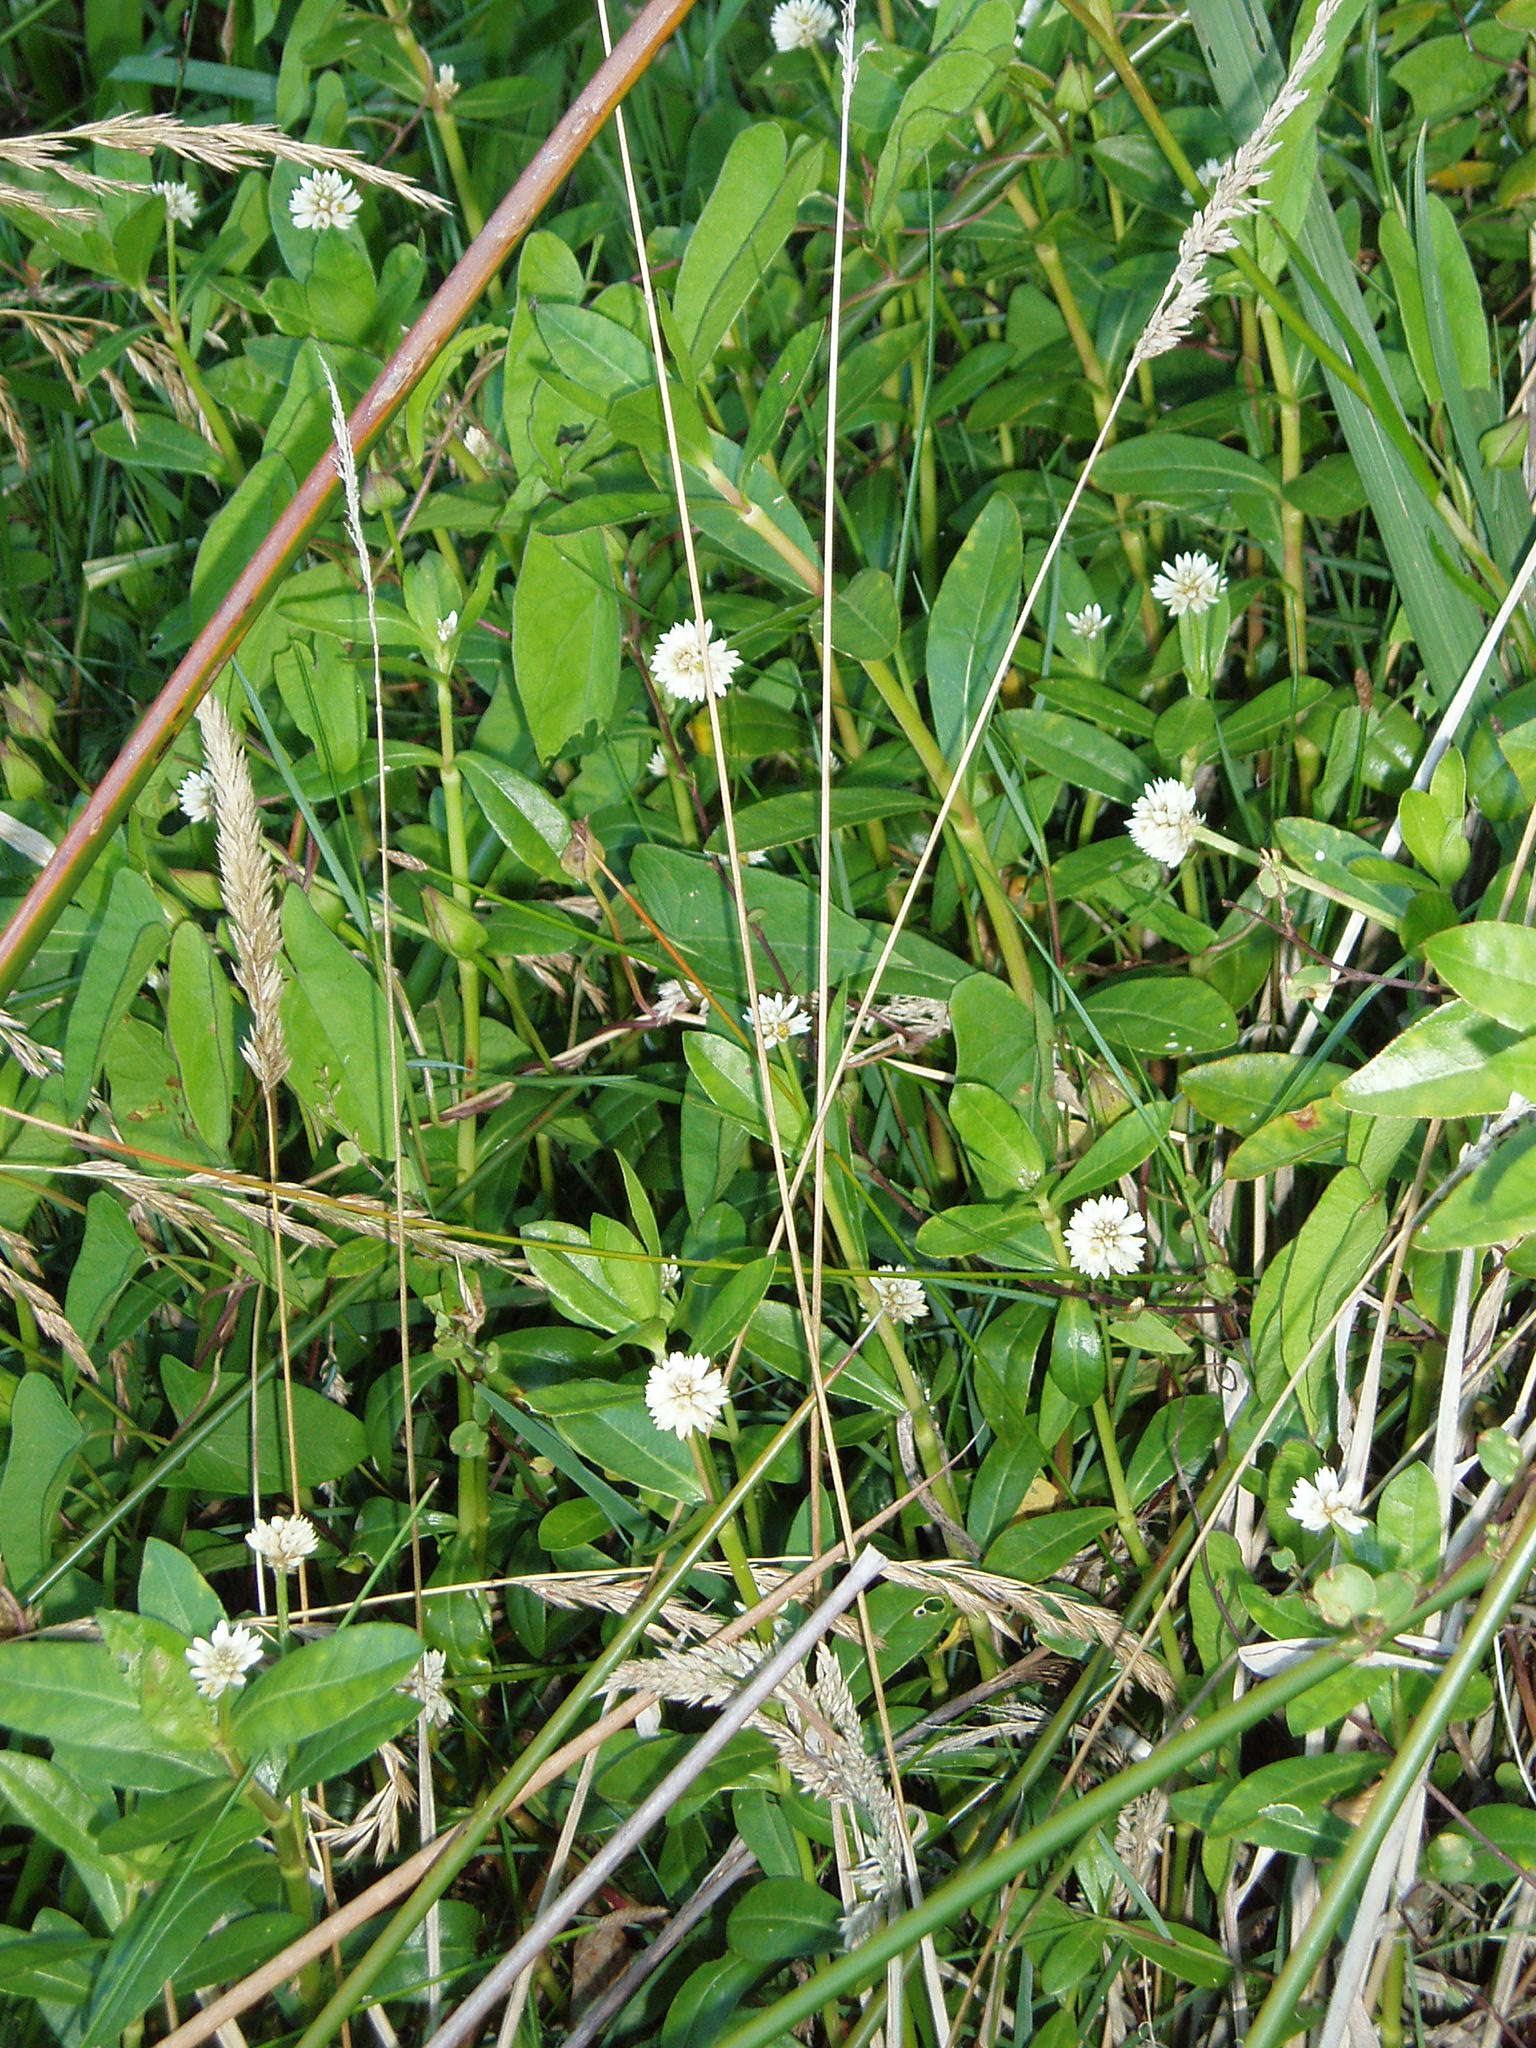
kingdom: Plantae
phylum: Tracheophyta
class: Magnoliopsida
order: Caryophyllales
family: Amaranthaceae
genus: Alternanthera
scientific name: Alternanthera philoxeroides
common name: Alligatorweed
